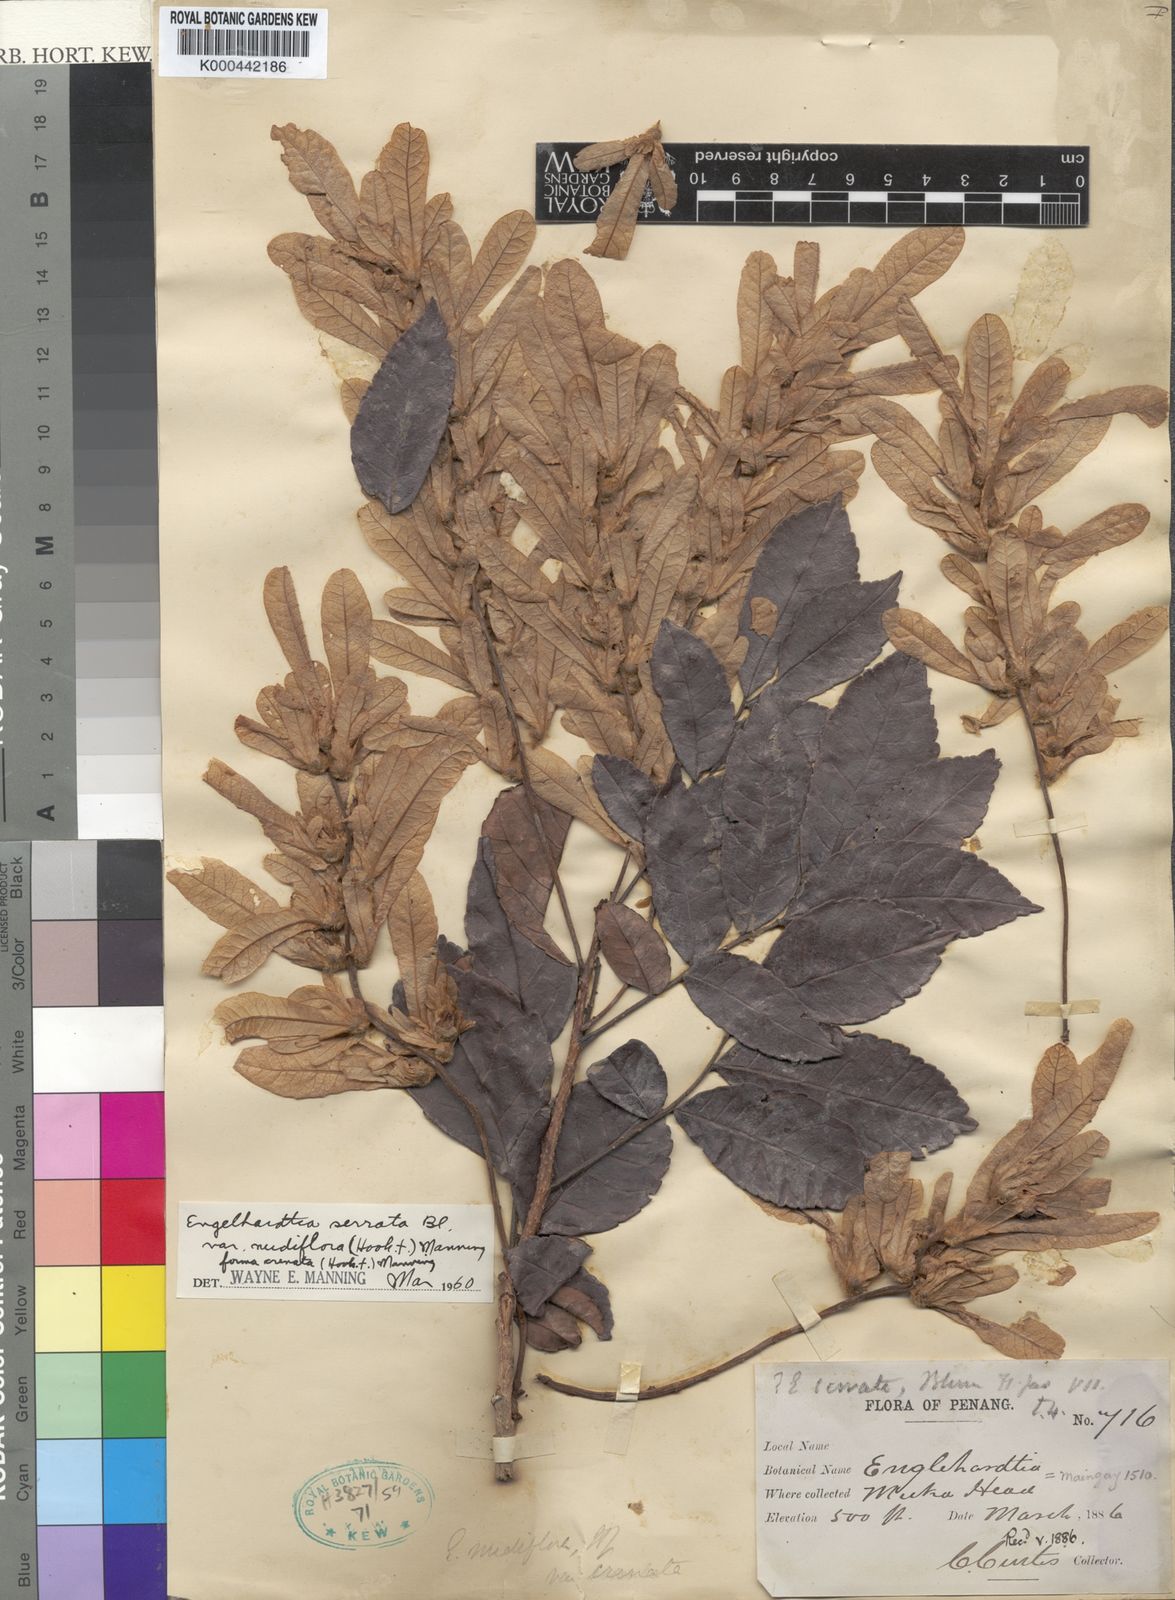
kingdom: Plantae
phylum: Tracheophyta
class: Magnoliopsida
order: Fagales
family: Juglandaceae
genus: Engelhardia
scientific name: Engelhardia serrata
